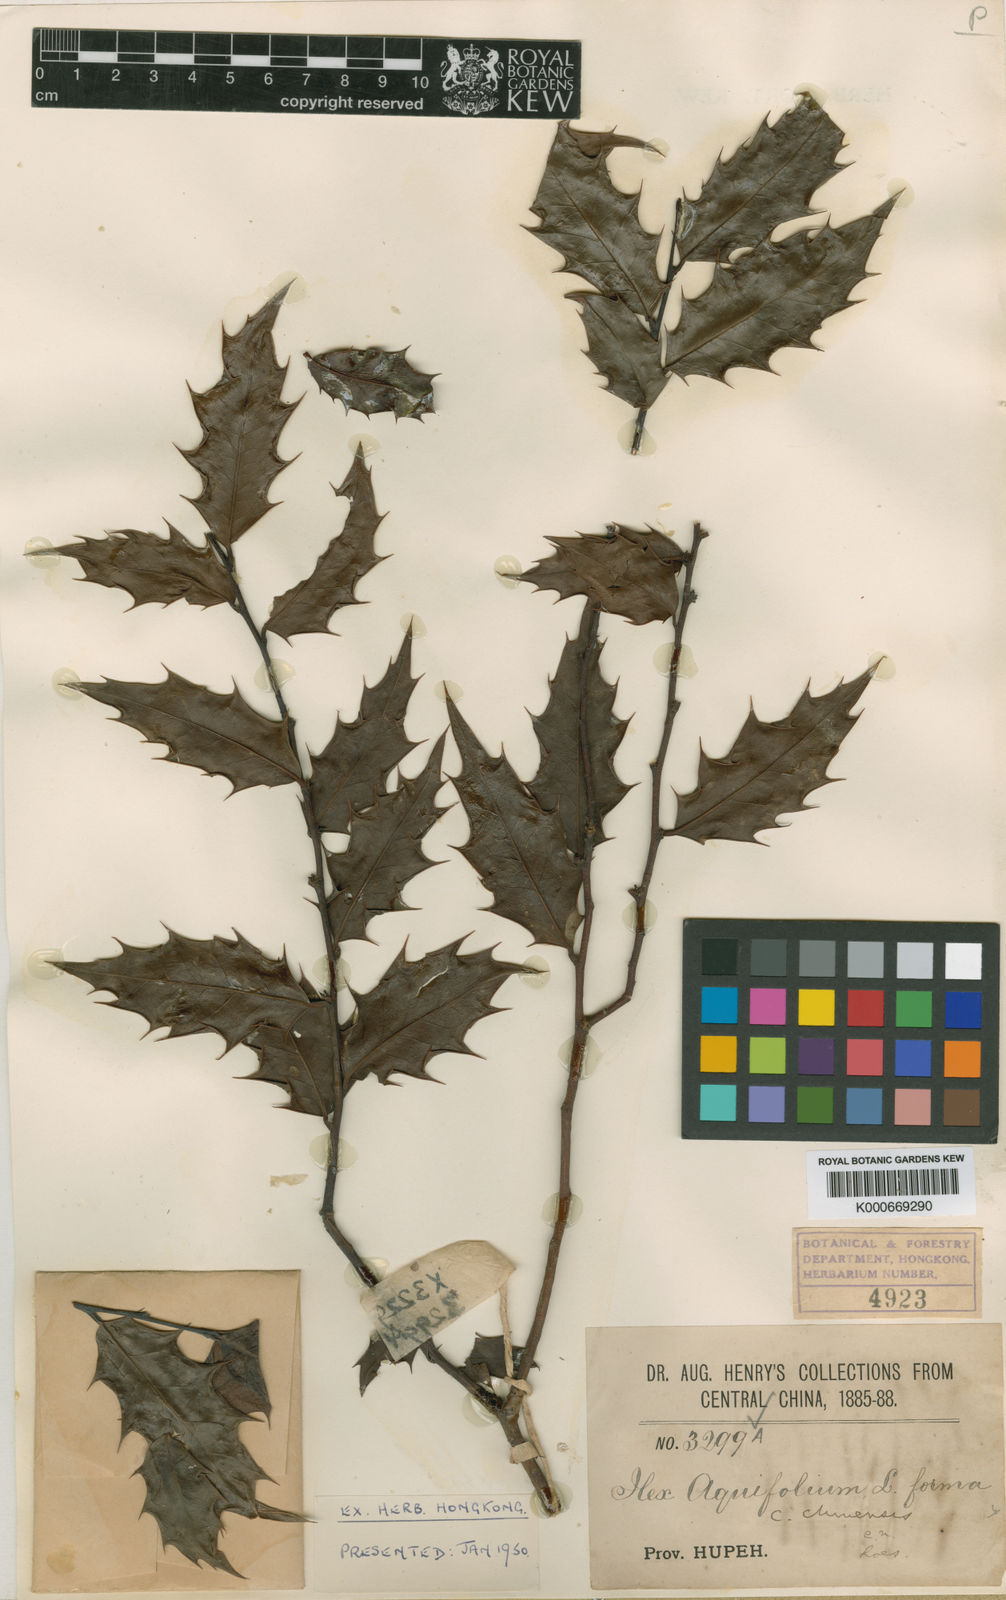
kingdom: Plantae
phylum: Tracheophyta
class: Magnoliopsida
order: Aquifoliales
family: Aquifoliaceae
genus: Ilex
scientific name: Ilex centrochinensis
